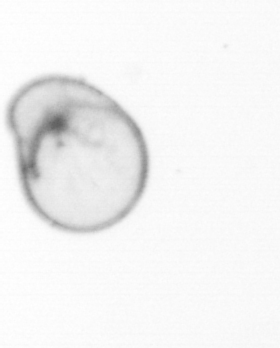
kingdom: Chromista
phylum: Myzozoa
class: Dinophyceae
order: Noctilucales
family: Noctilucaceae
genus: Noctiluca
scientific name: Noctiluca scintillans
